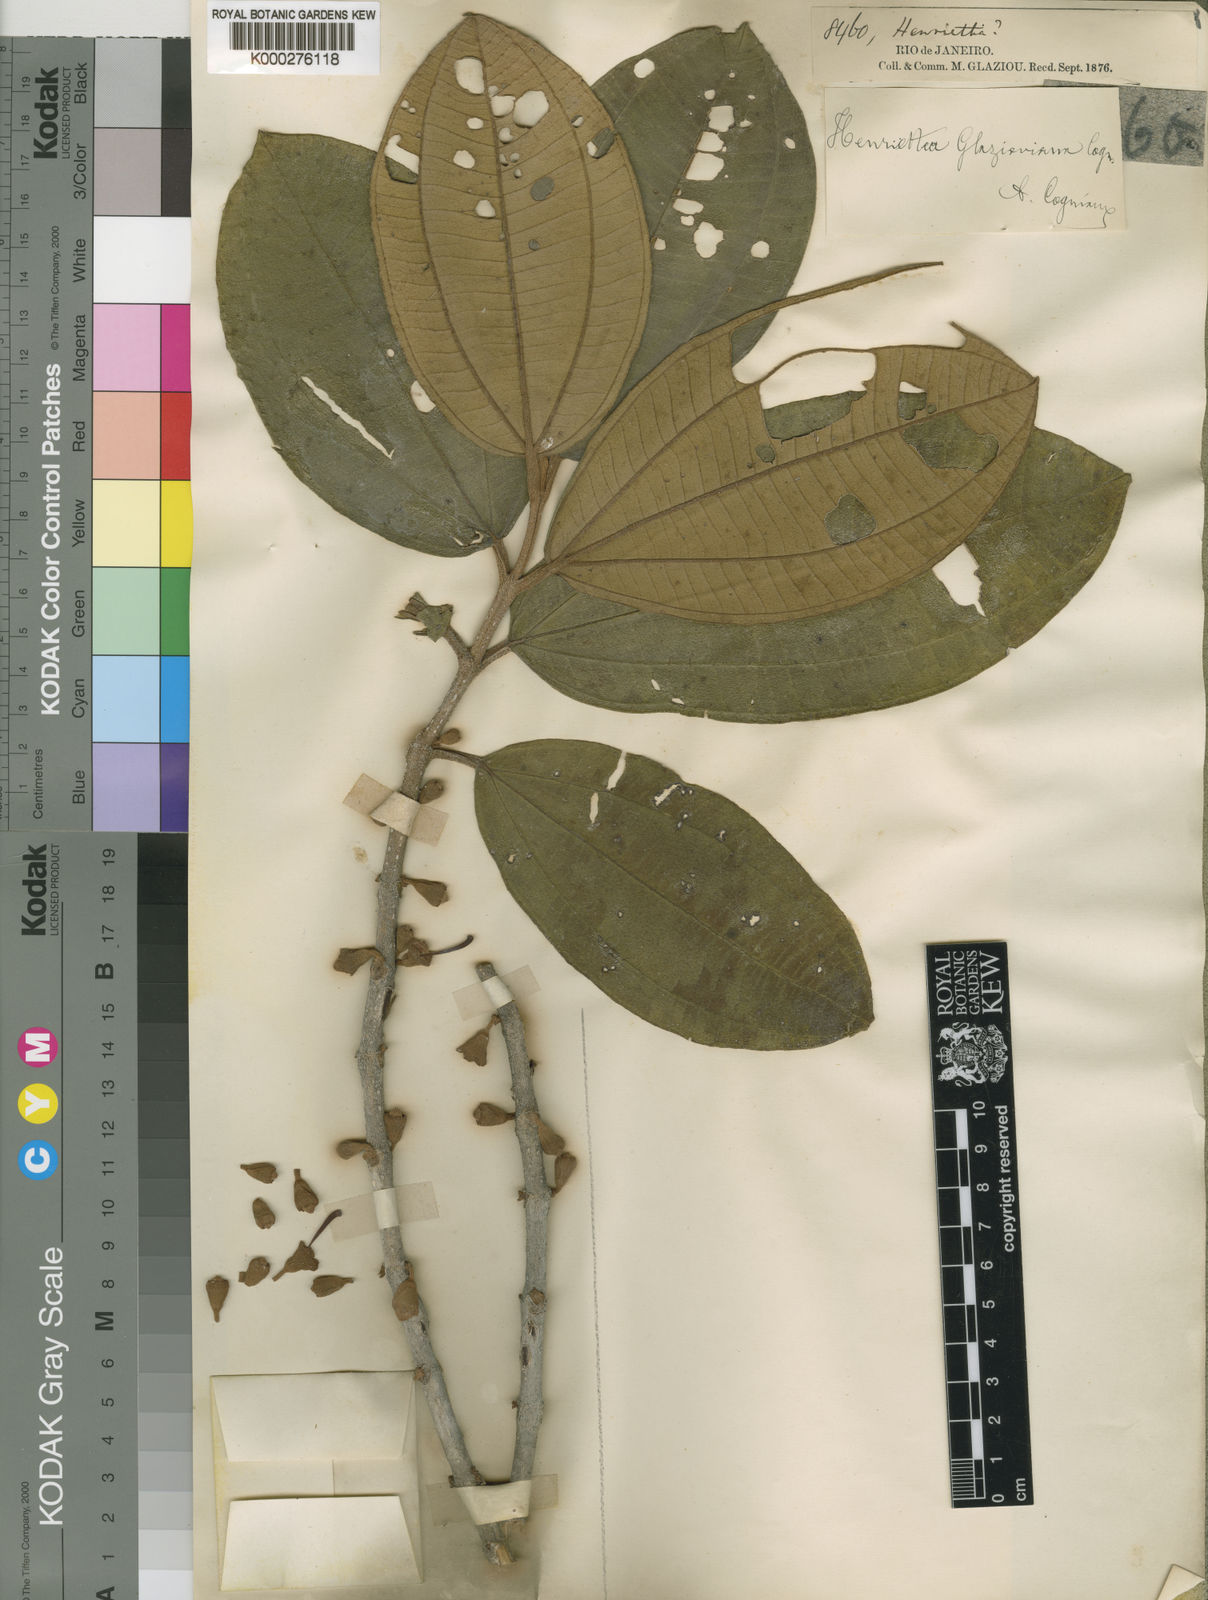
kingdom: Plantae
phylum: Tracheophyta
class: Magnoliopsida
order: Myrtales
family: Melastomataceae
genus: Henriettea
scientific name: Henriettea saldanhaei
